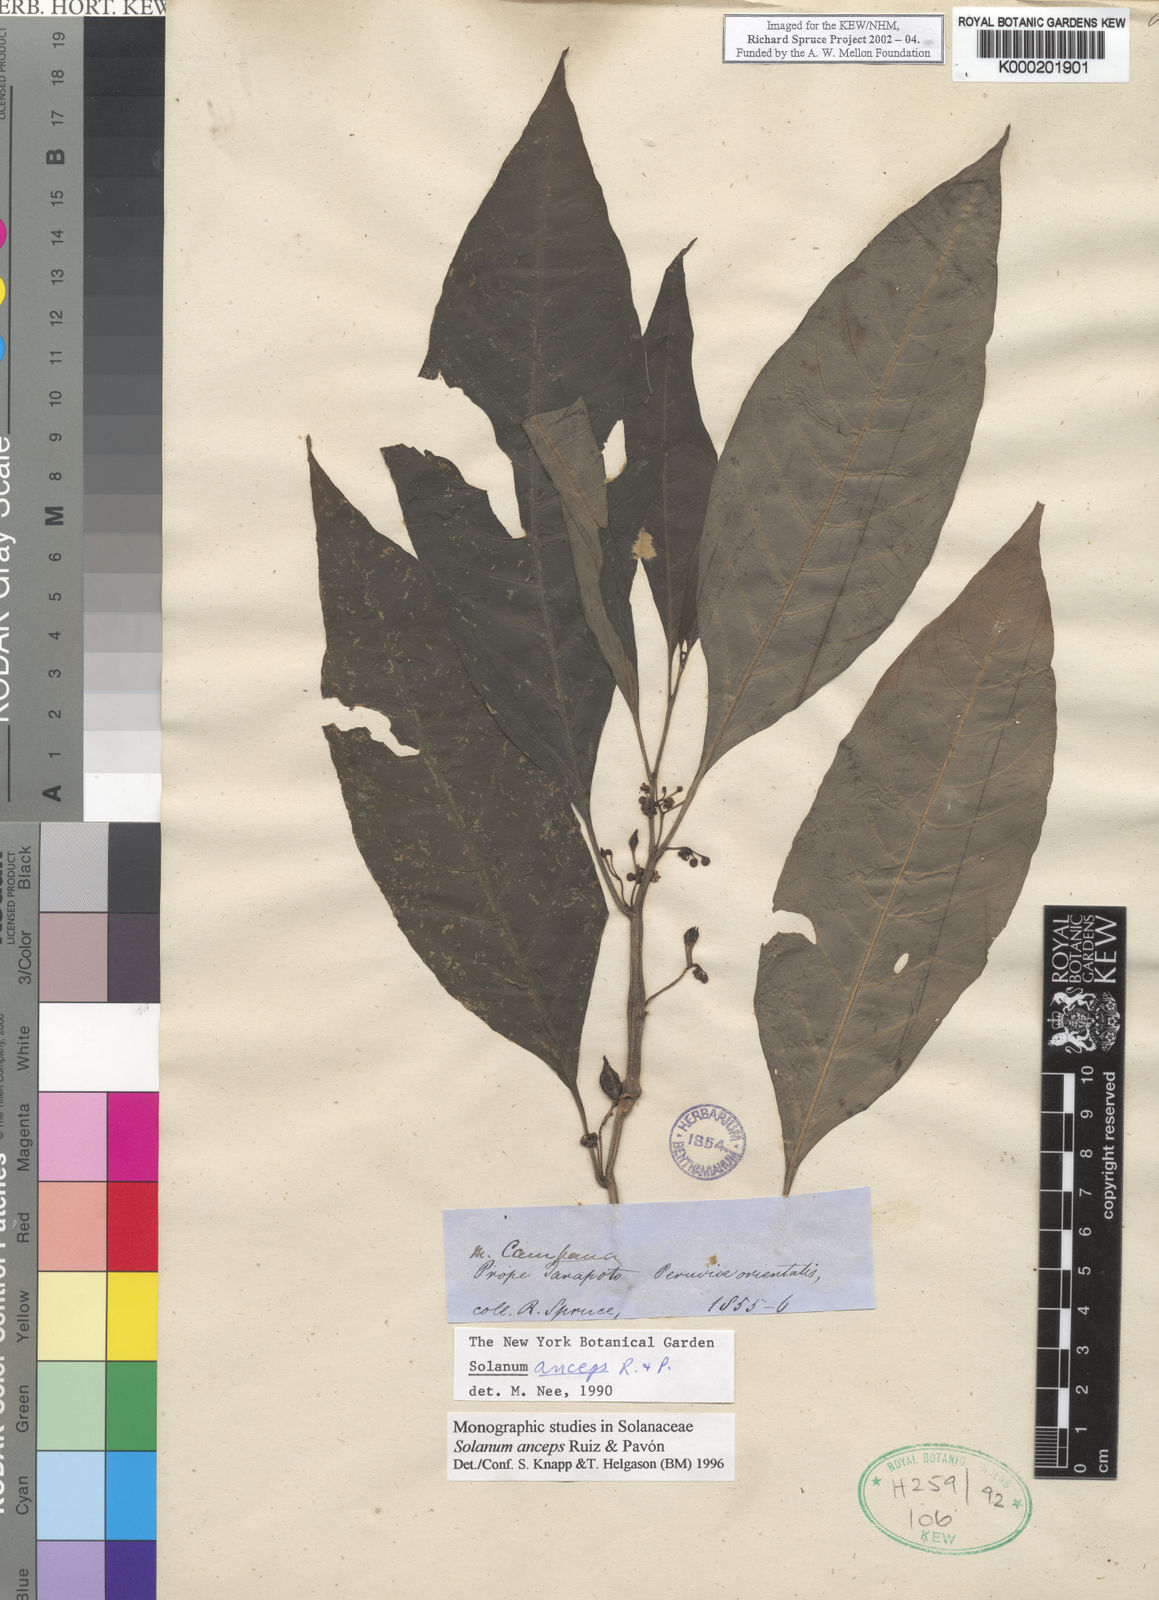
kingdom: Plantae
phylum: Tracheophyta
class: Magnoliopsida
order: Solanales
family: Solanaceae
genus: Solanum
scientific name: Solanum anceps
